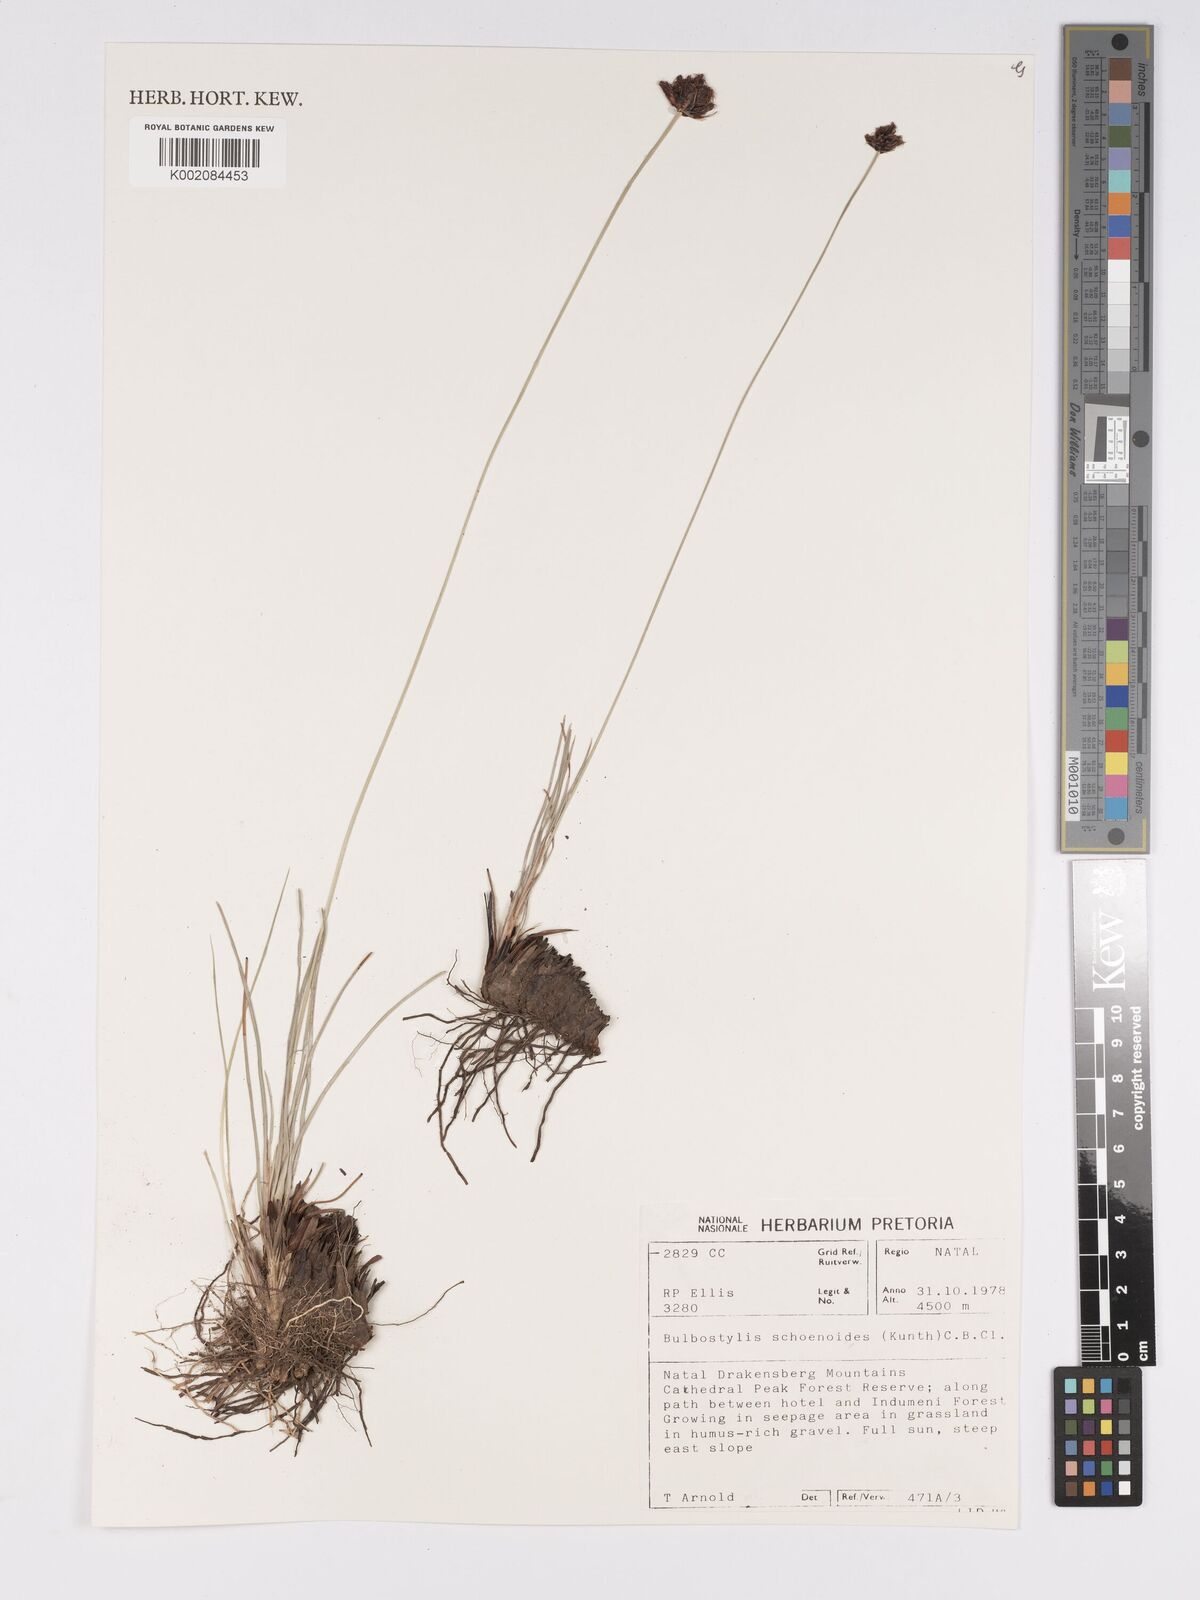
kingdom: Plantae
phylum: Tracheophyta
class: Liliopsida
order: Poales
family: Cyperaceae
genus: Bulbostylis
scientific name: Bulbostylis schoenoides
